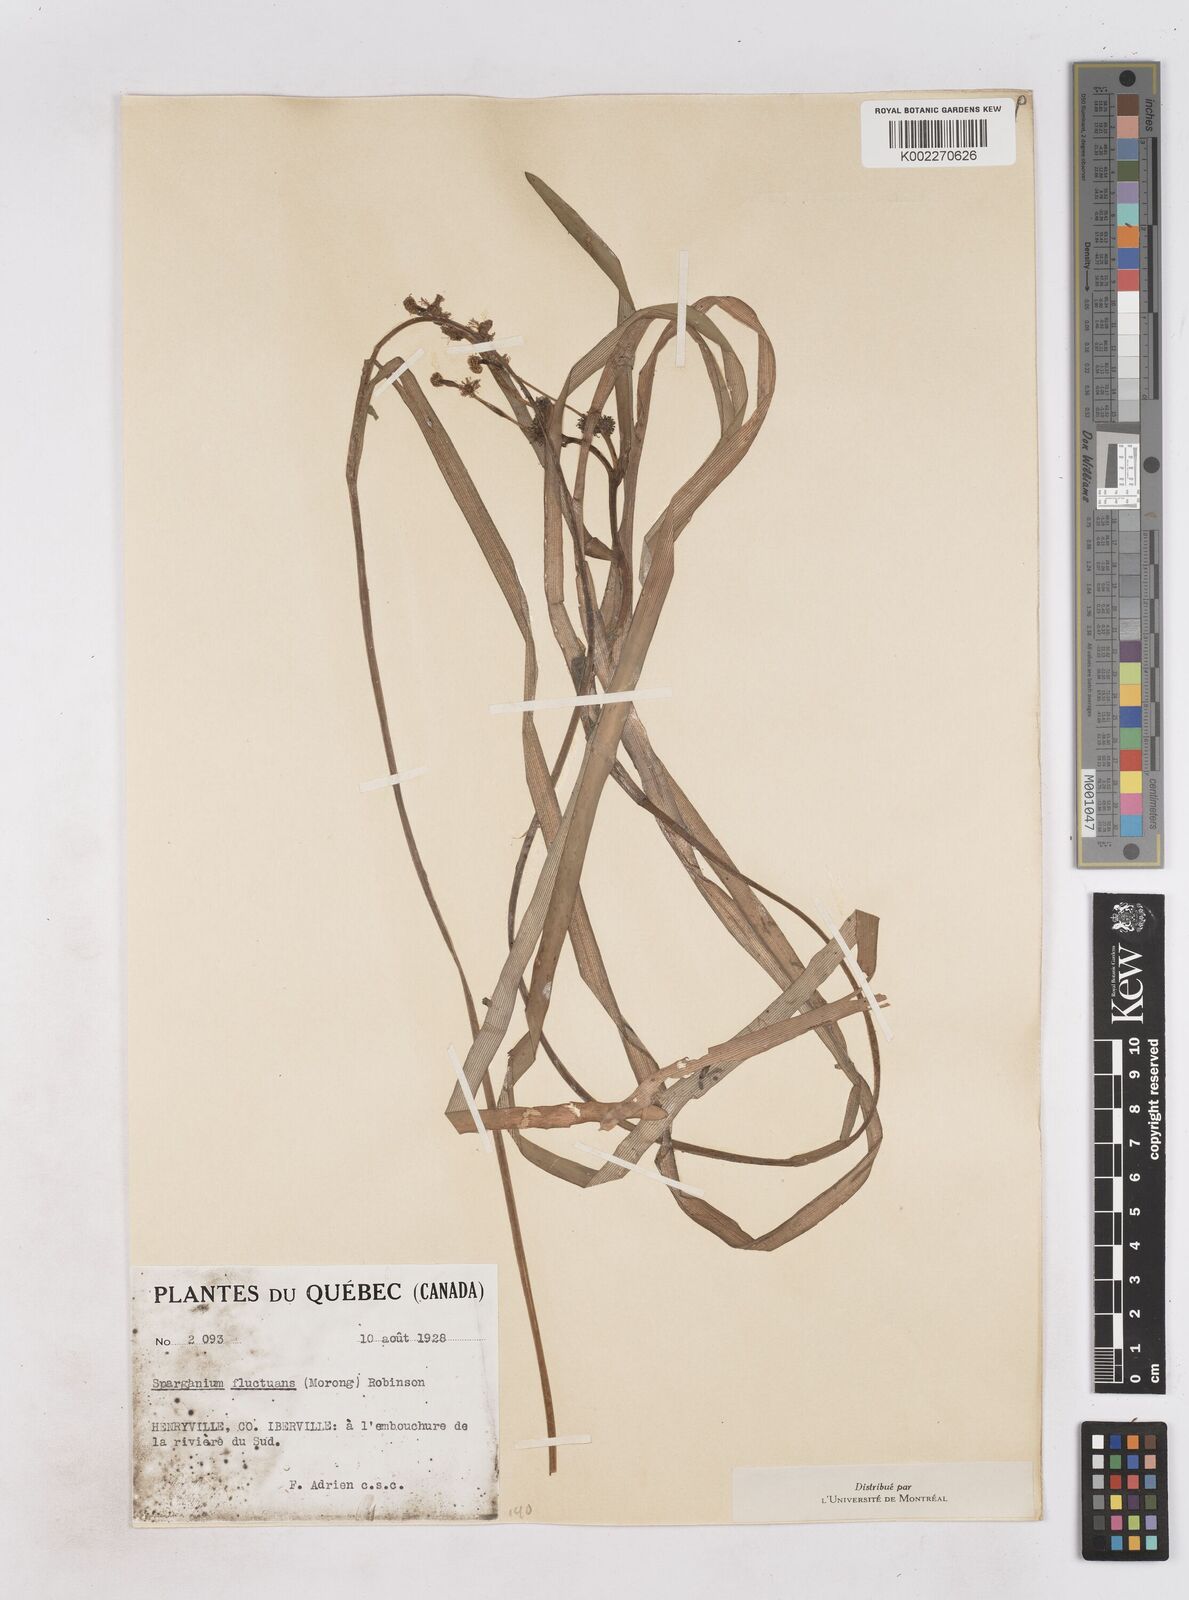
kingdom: Plantae
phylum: Tracheophyta
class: Liliopsida
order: Poales
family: Typhaceae
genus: Sparganium
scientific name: Sparganium fluctuans
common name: Floating burreed
